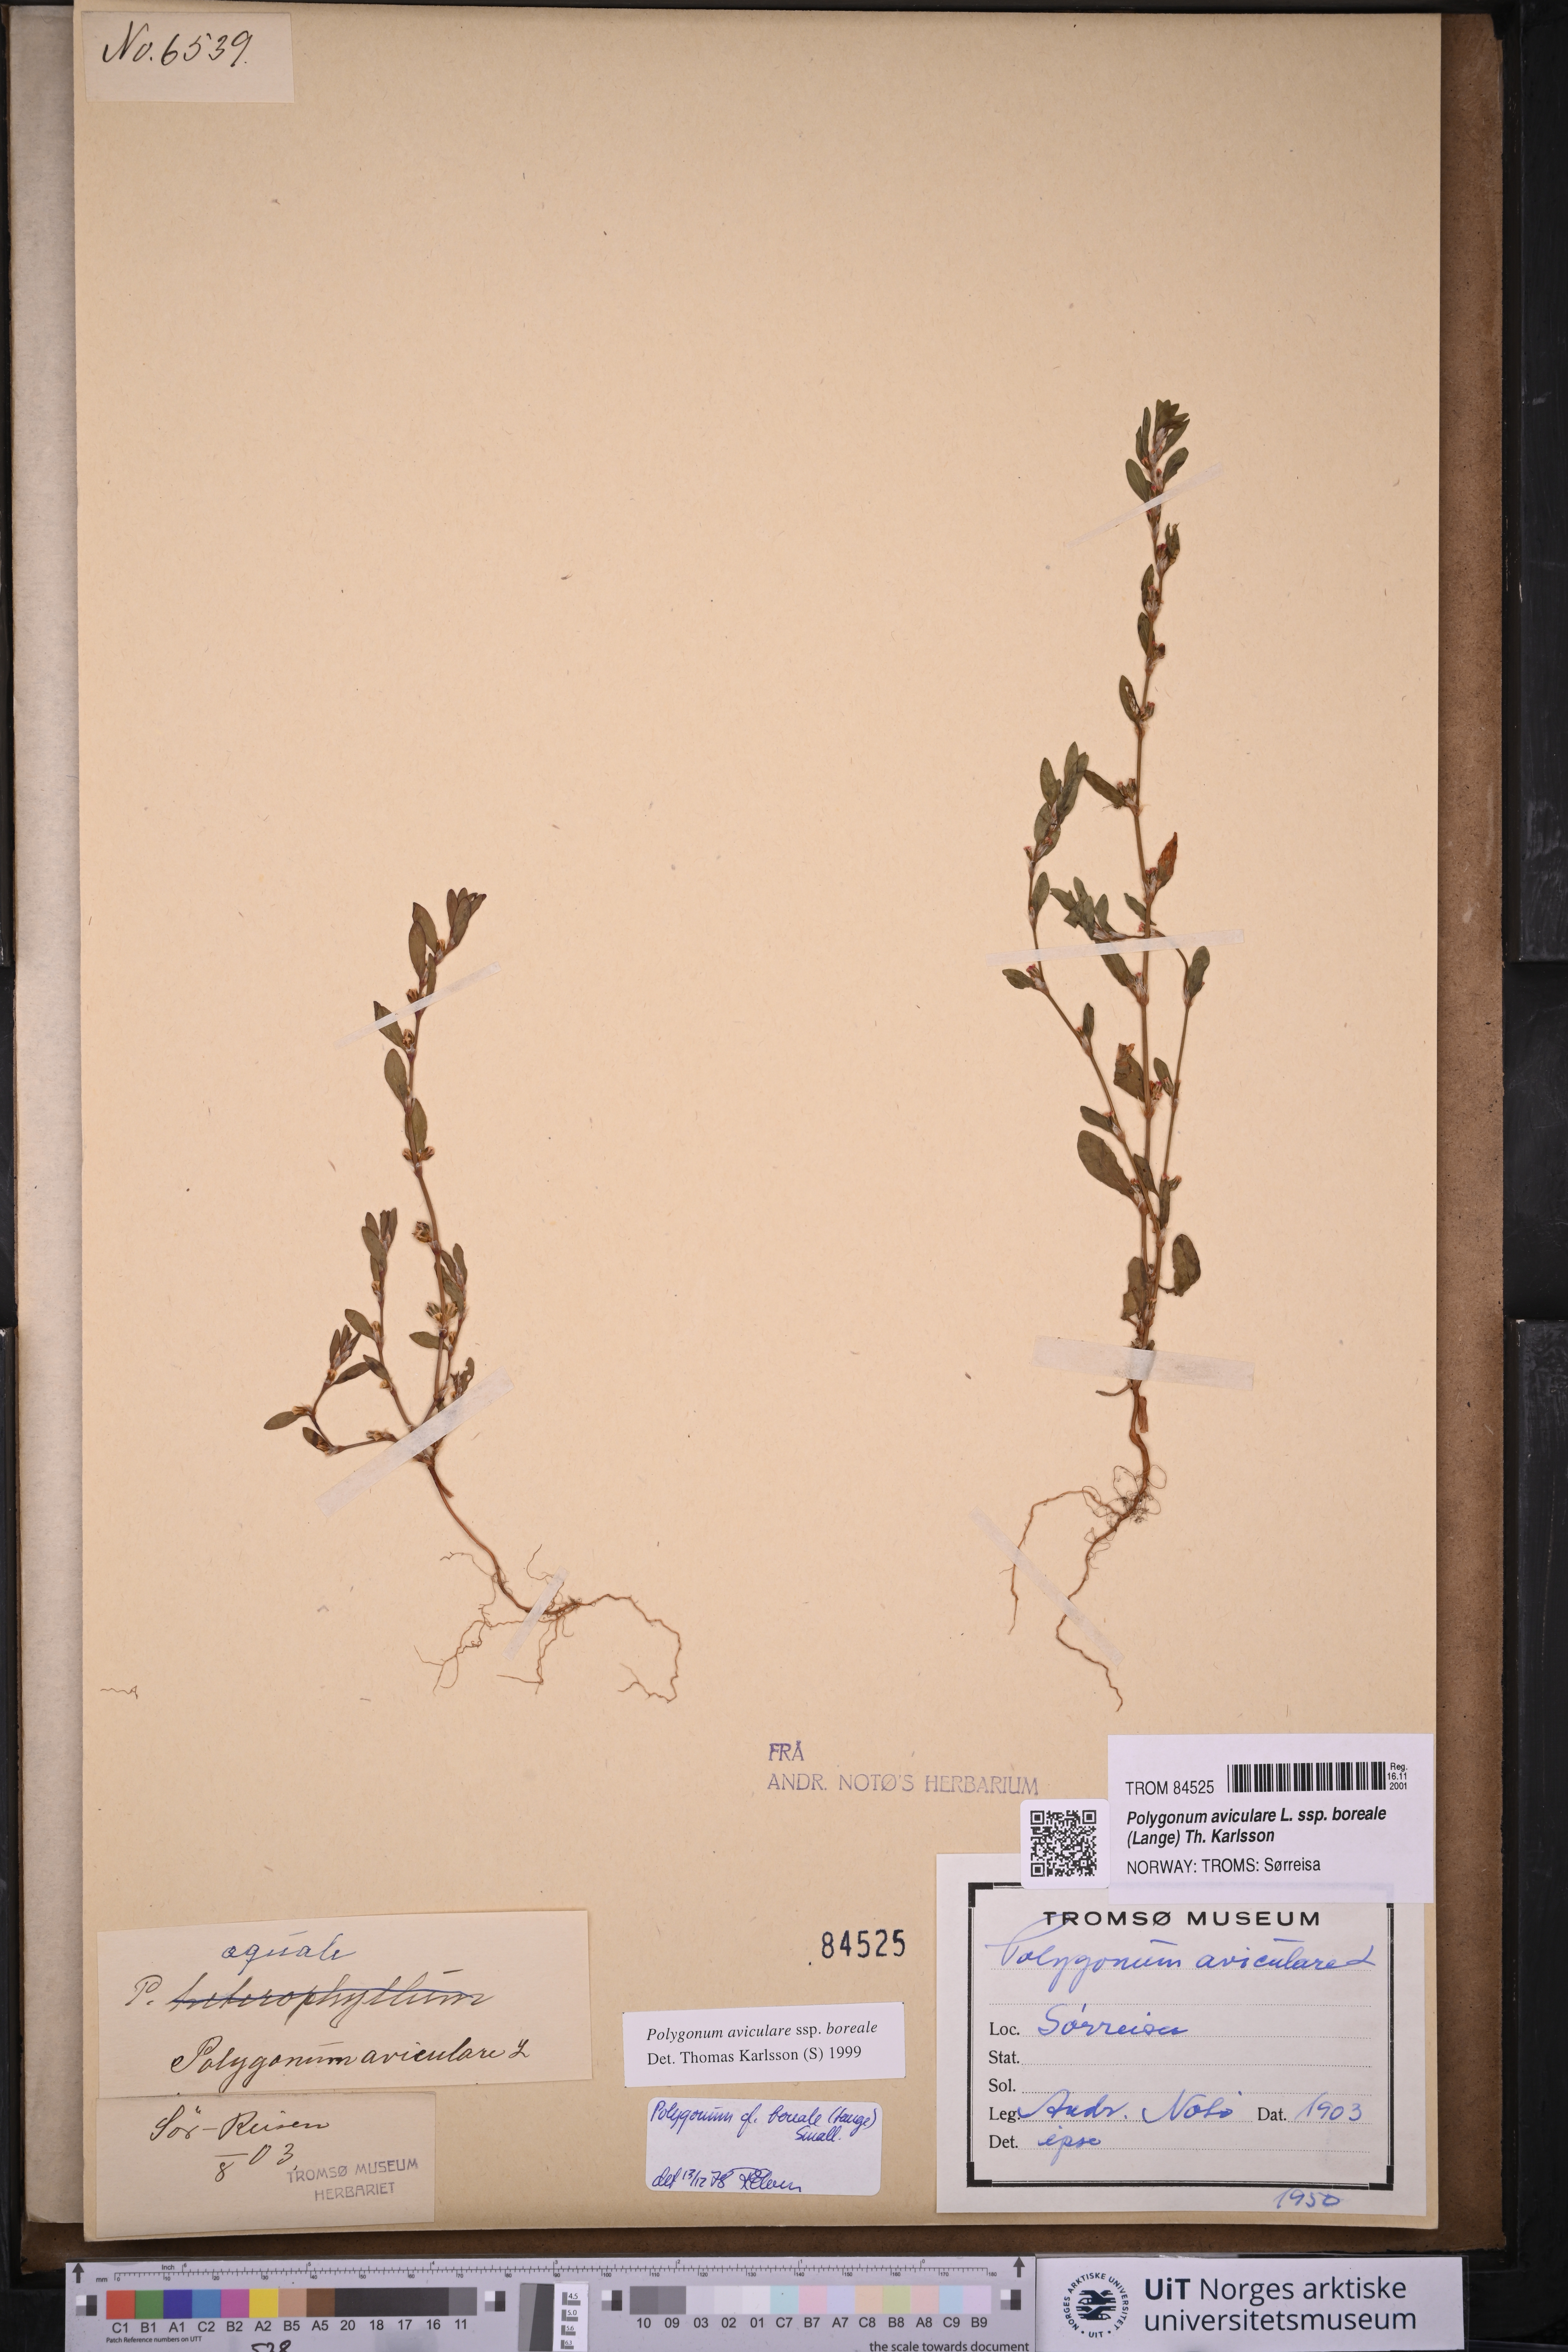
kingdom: Plantae
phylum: Tracheophyta
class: Magnoliopsida
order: Caryophyllales
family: Polygonaceae
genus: Polygonum
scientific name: Polygonum boreale
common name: Northern knotgrass
